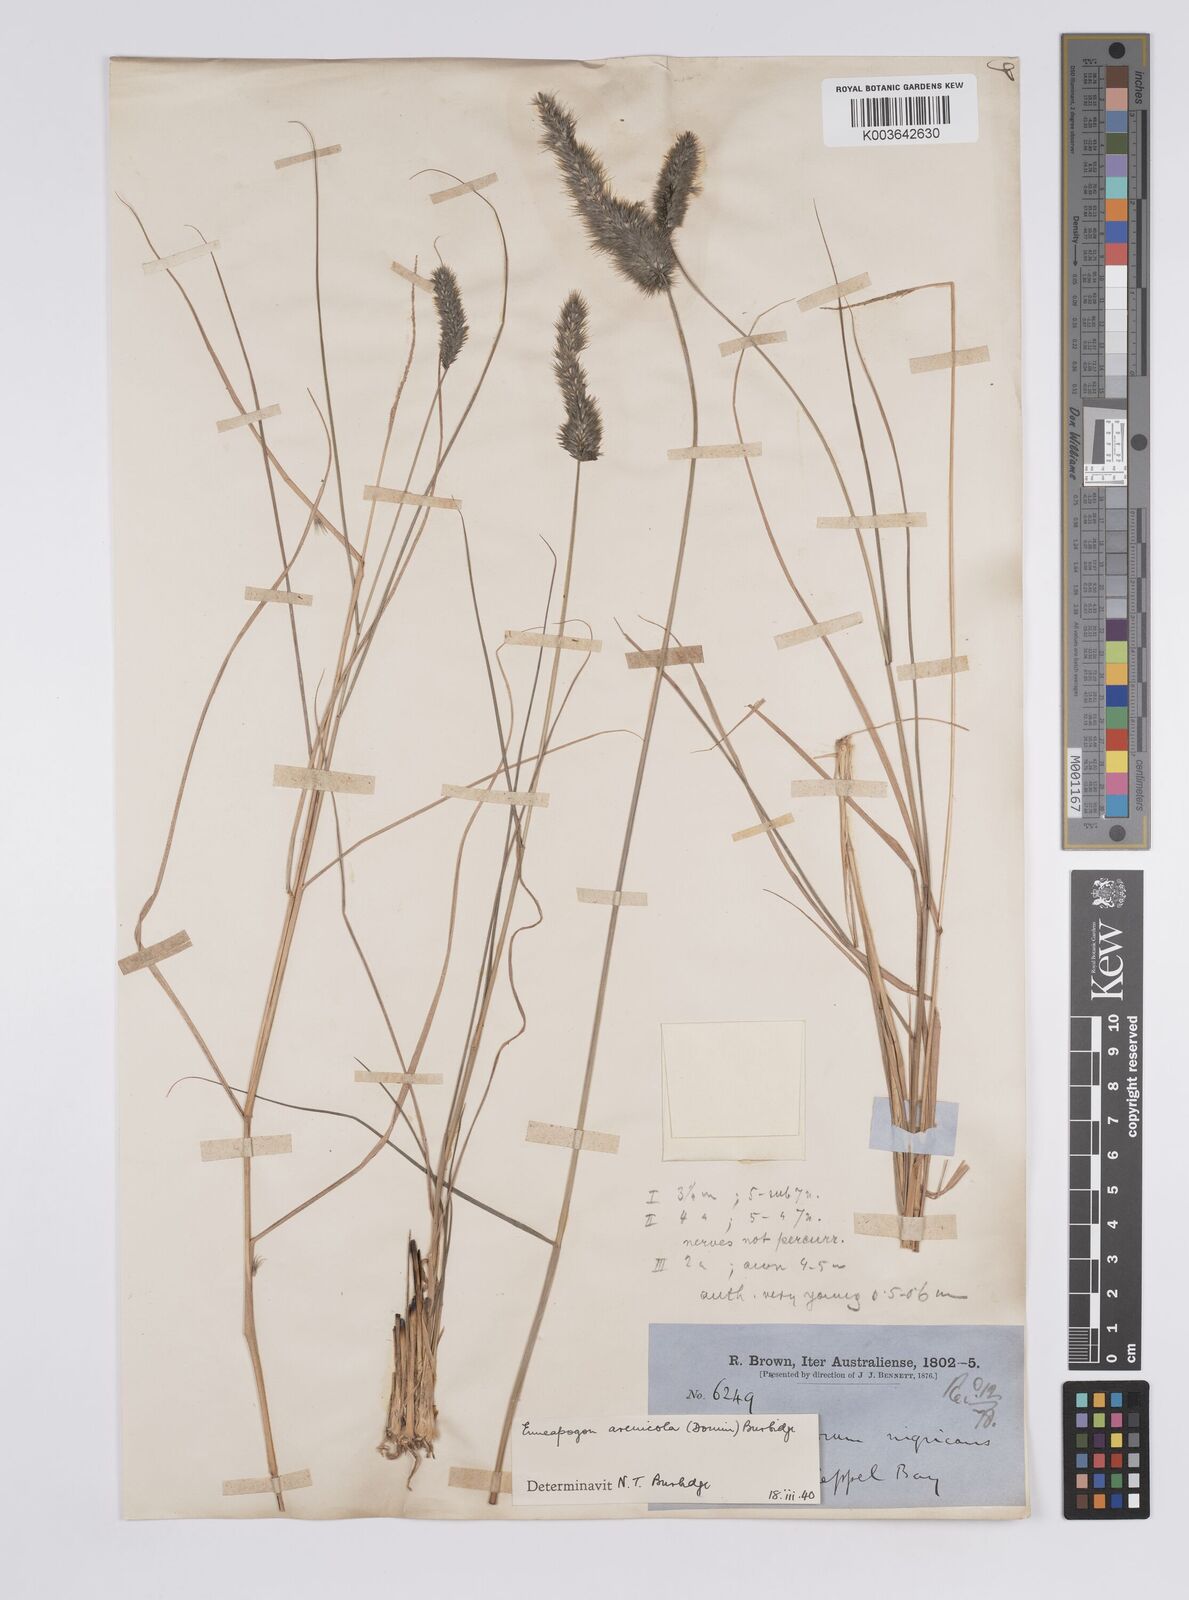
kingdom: Plantae
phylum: Tracheophyta
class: Liliopsida
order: Poales
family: Poaceae
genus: Enneapogon
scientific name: Enneapogon nigricans
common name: Pappus grass
